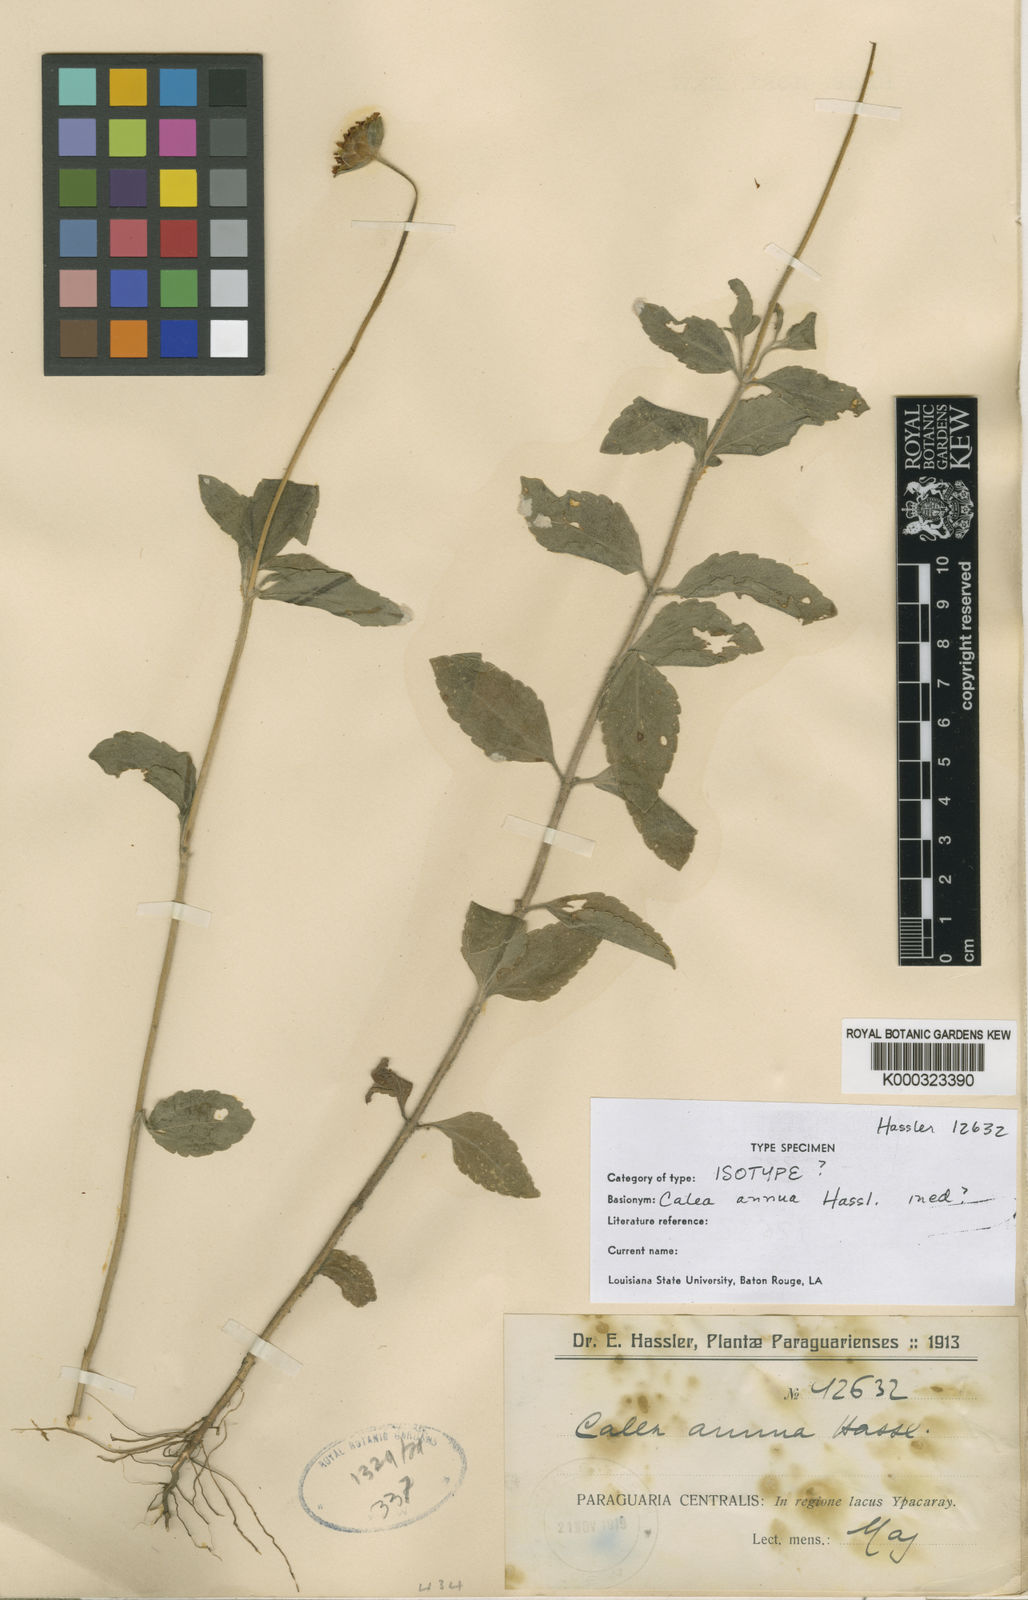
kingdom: Plantae
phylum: Tracheophyta
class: Magnoliopsida
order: Asterales
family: Asteraceae
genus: Calea
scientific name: Calea
